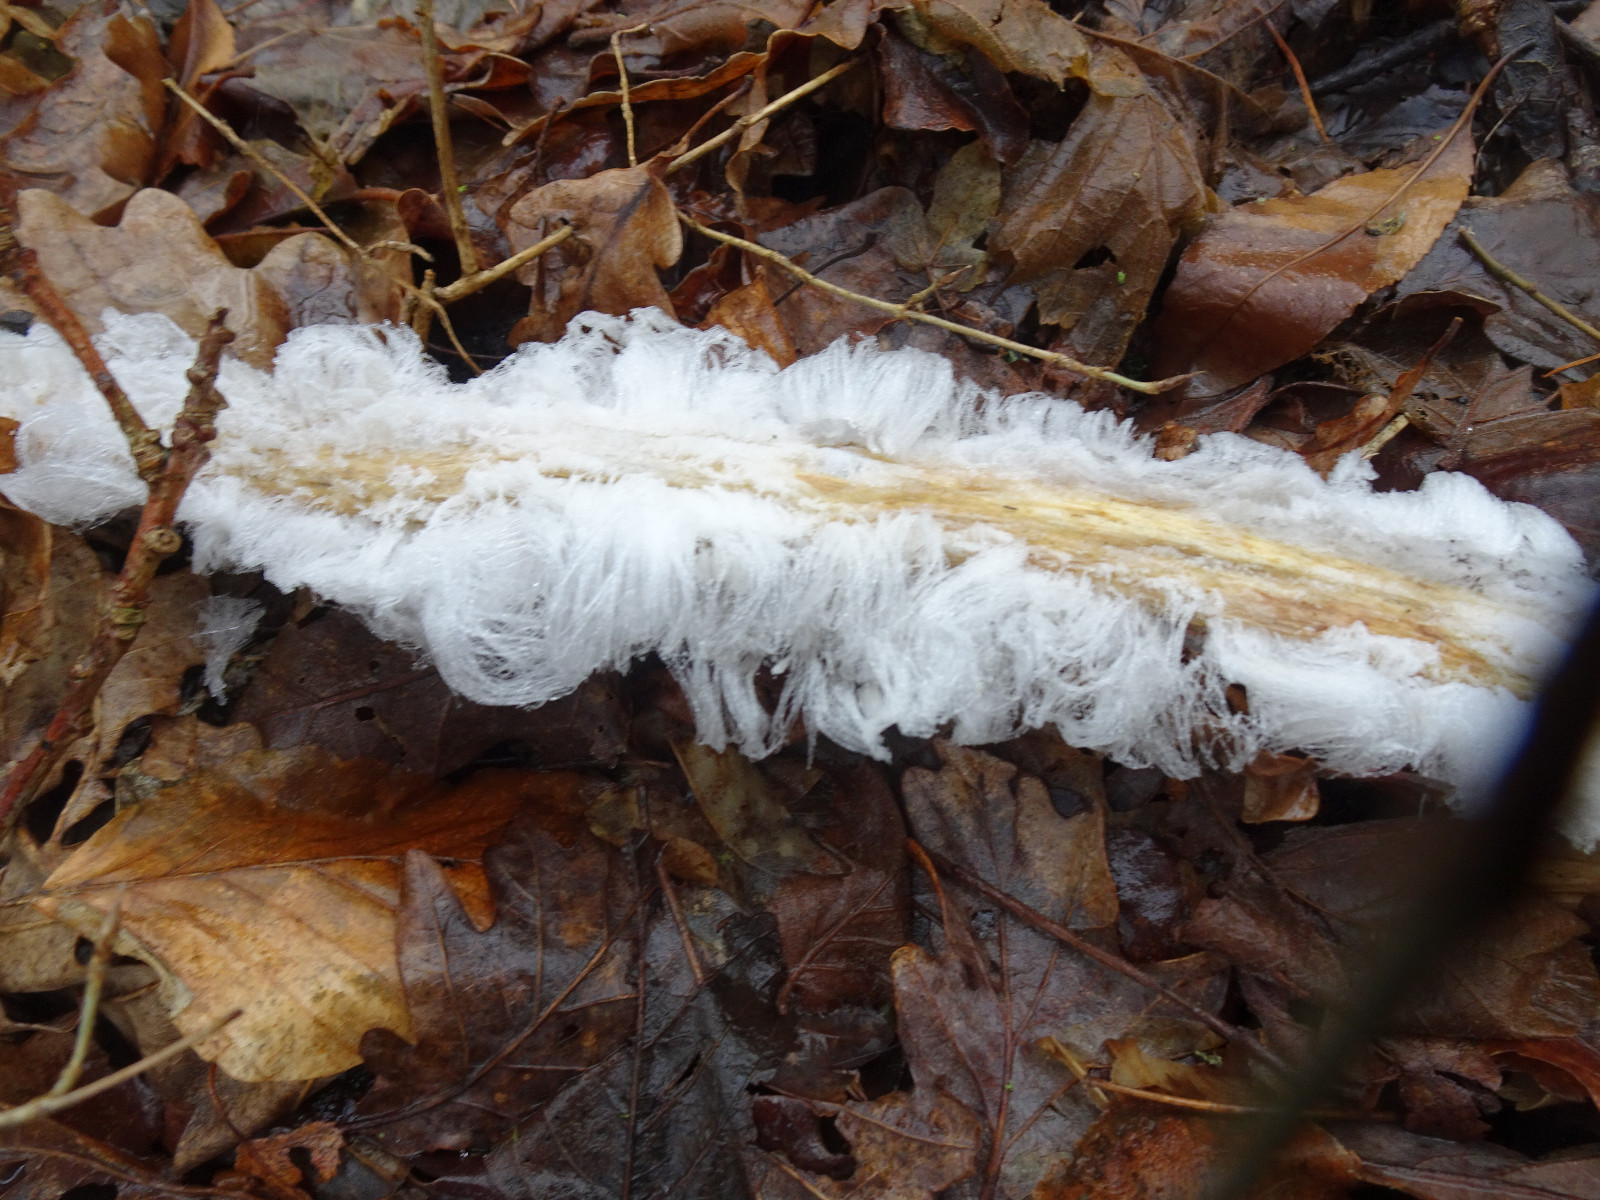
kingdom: Fungi
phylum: Basidiomycota
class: Tremellomycetes
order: Tremellales
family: Exidiaceae
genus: Exidiopsis
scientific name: Exidiopsis effusa
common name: smuk bævrehinde
